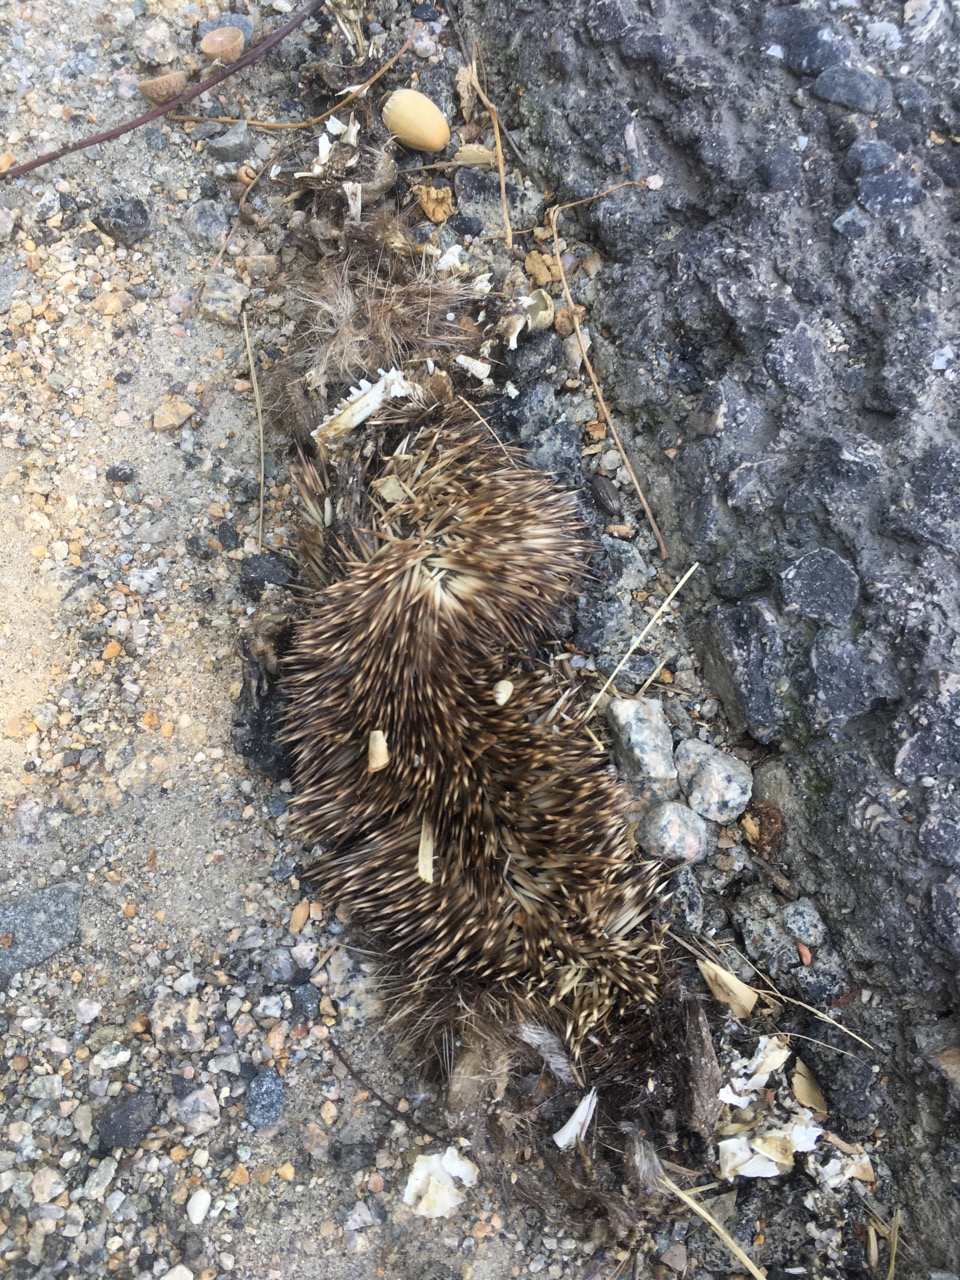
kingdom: Animalia
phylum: Chordata
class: Mammalia
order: Erinaceomorpha
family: Erinaceidae
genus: Erinaceus
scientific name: Erinaceus
